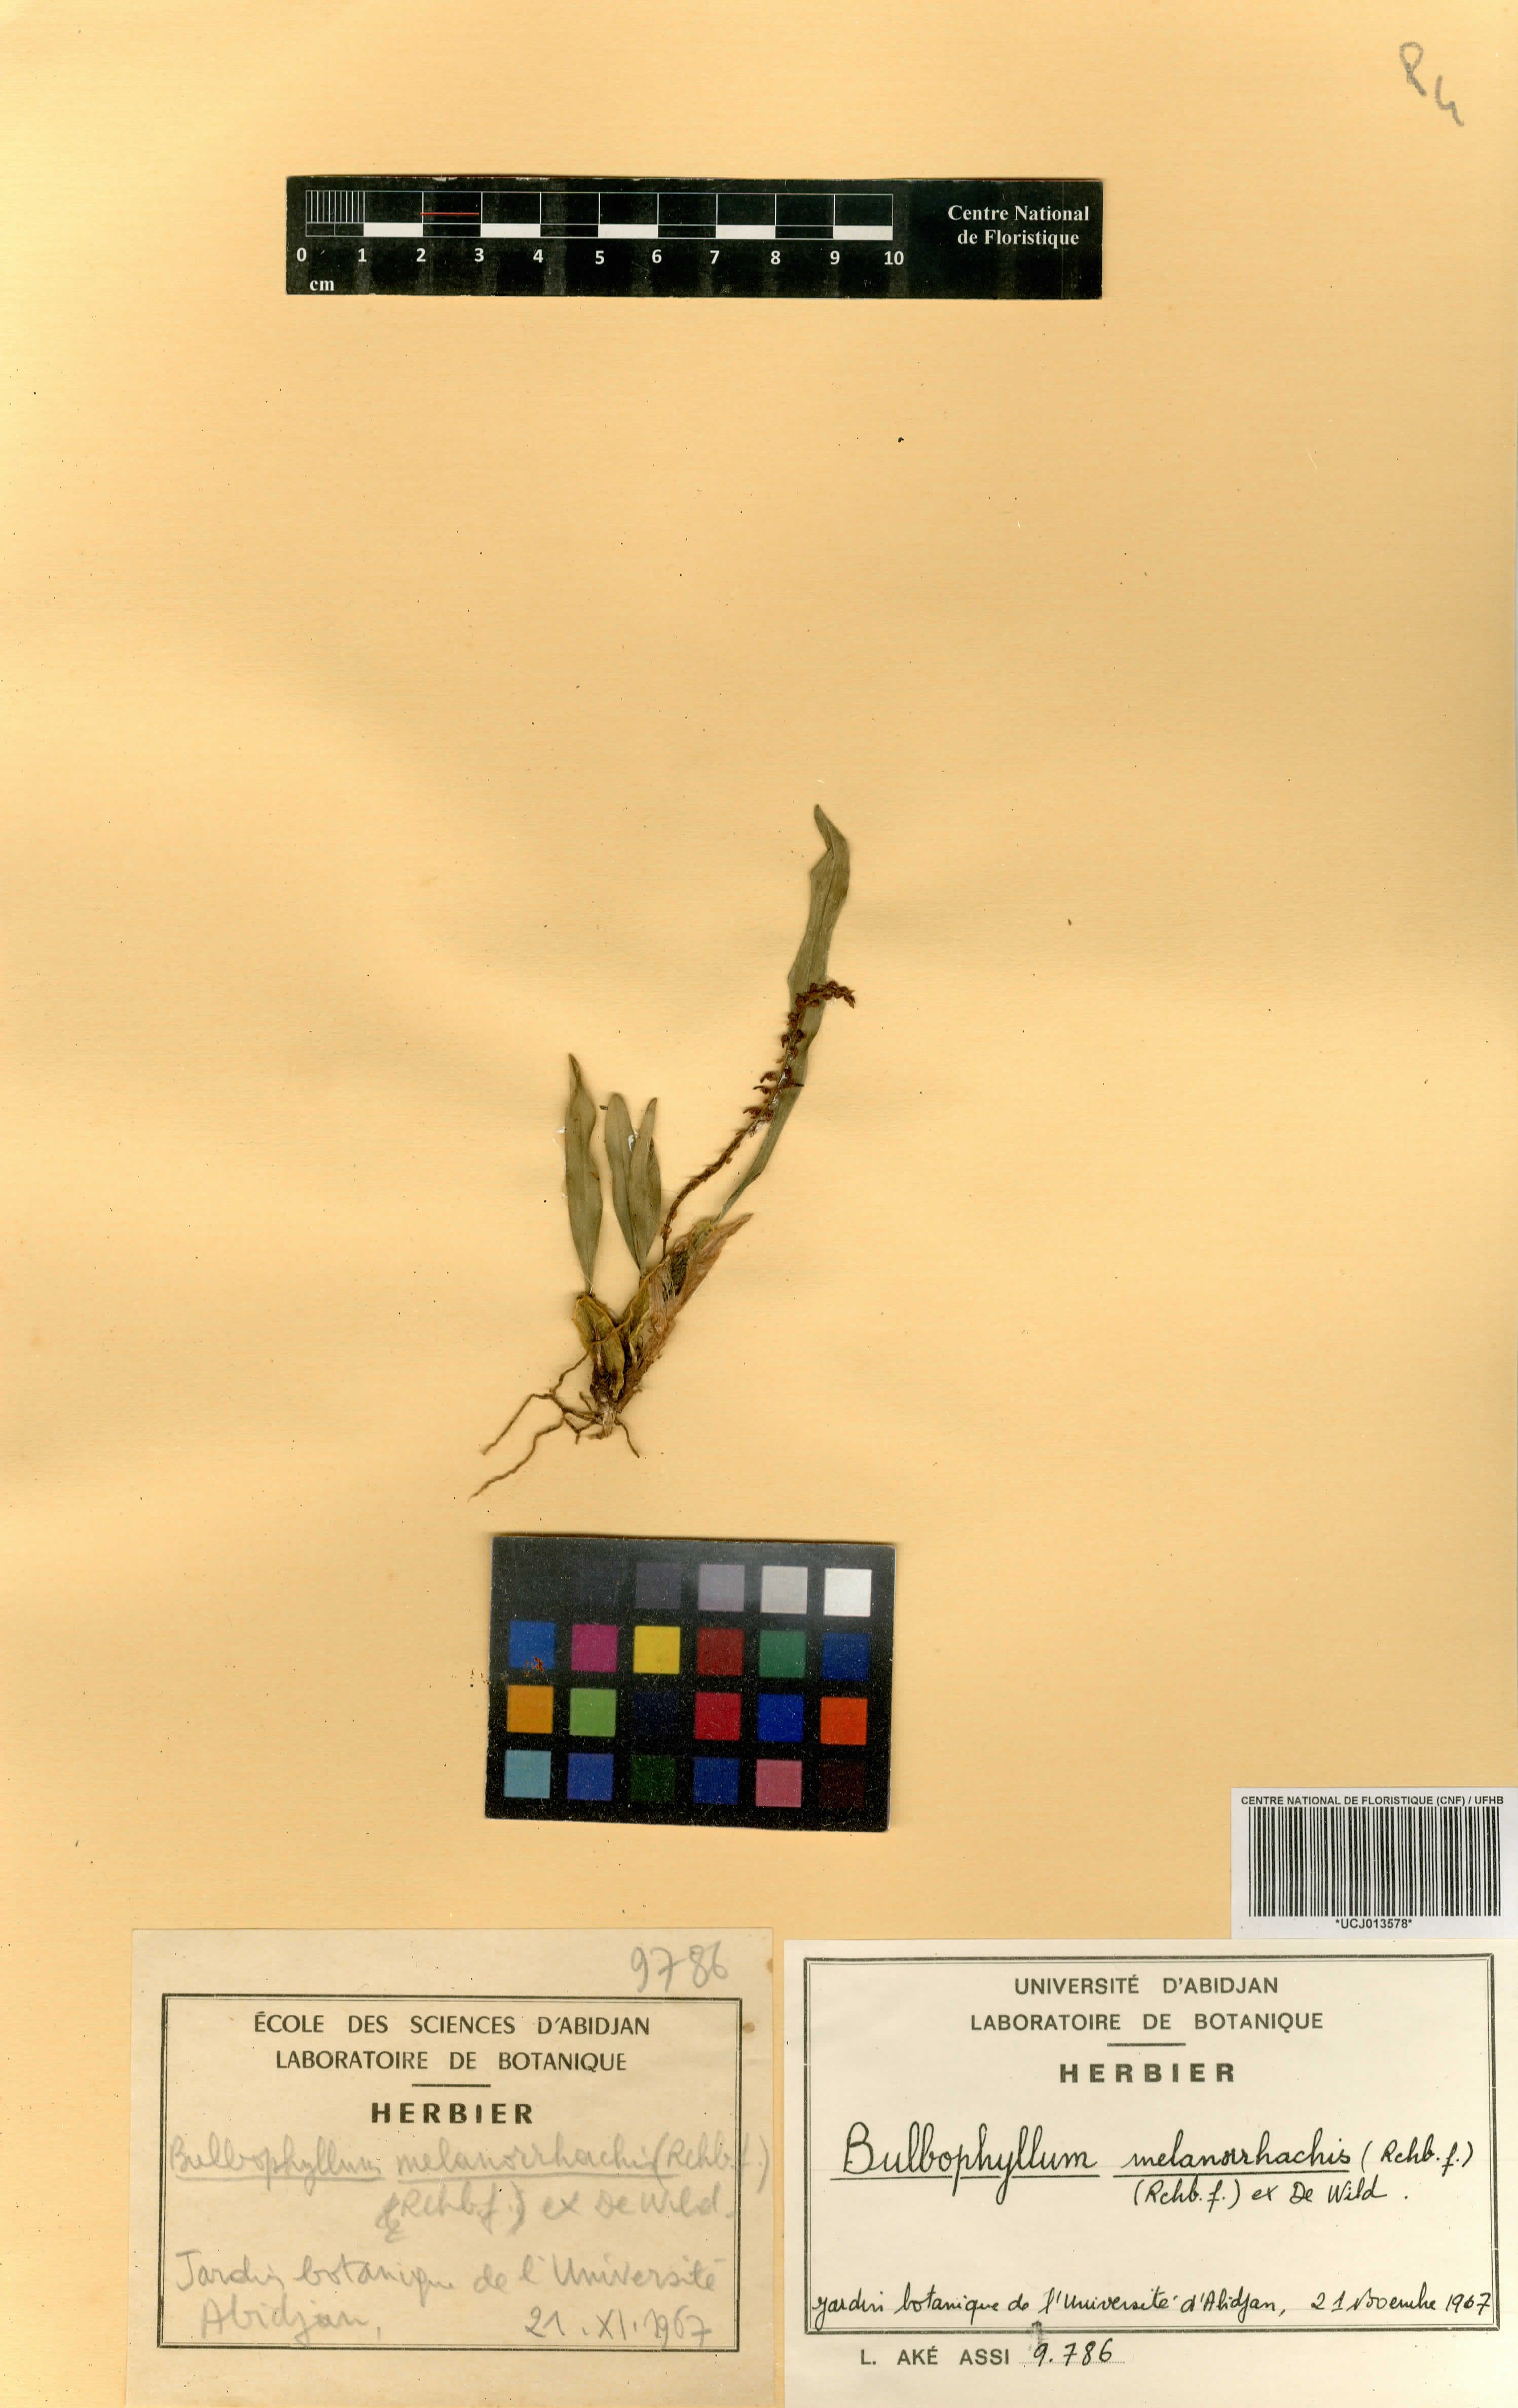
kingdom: Plantae
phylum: Tracheophyta
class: Liliopsida
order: Asparagales
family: Orchidaceae
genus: Bulbophyllum
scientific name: Bulbophyllum falcatum
